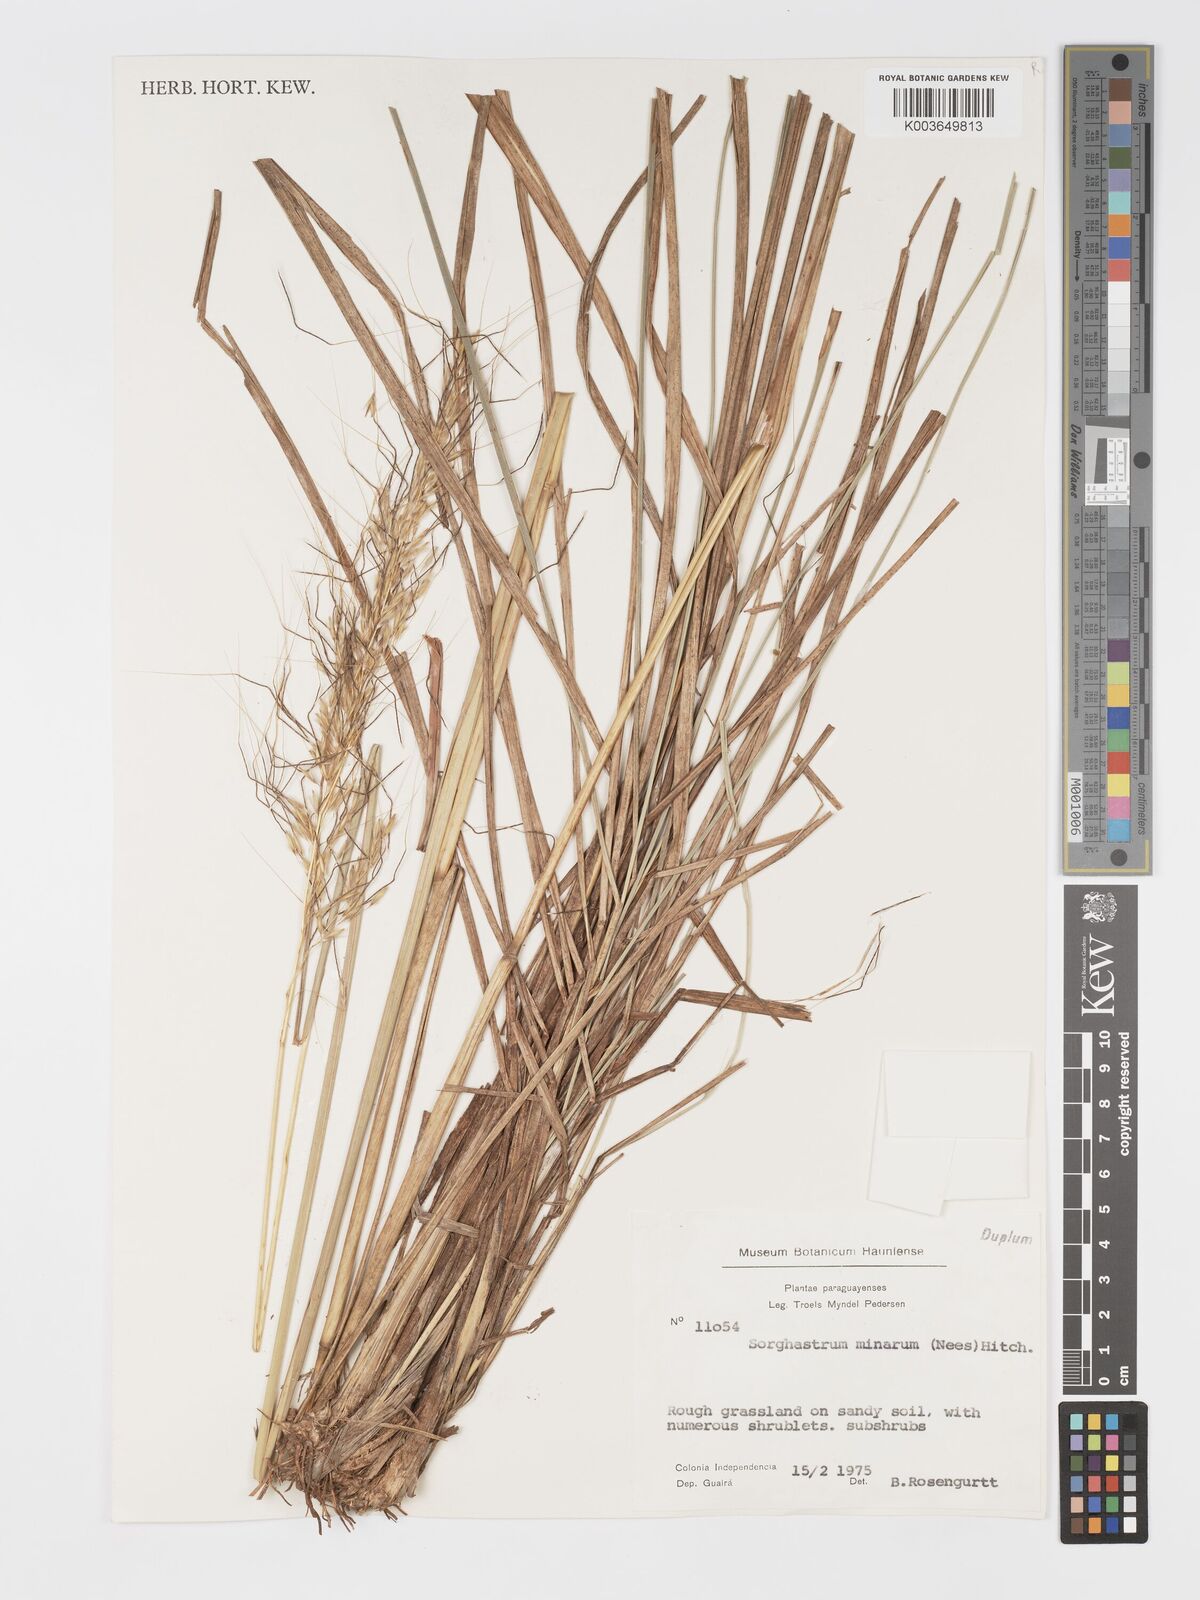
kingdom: Plantae
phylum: Tracheophyta
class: Liliopsida
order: Poales
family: Poaceae
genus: Sorghastrum
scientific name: Sorghastrum balansae
